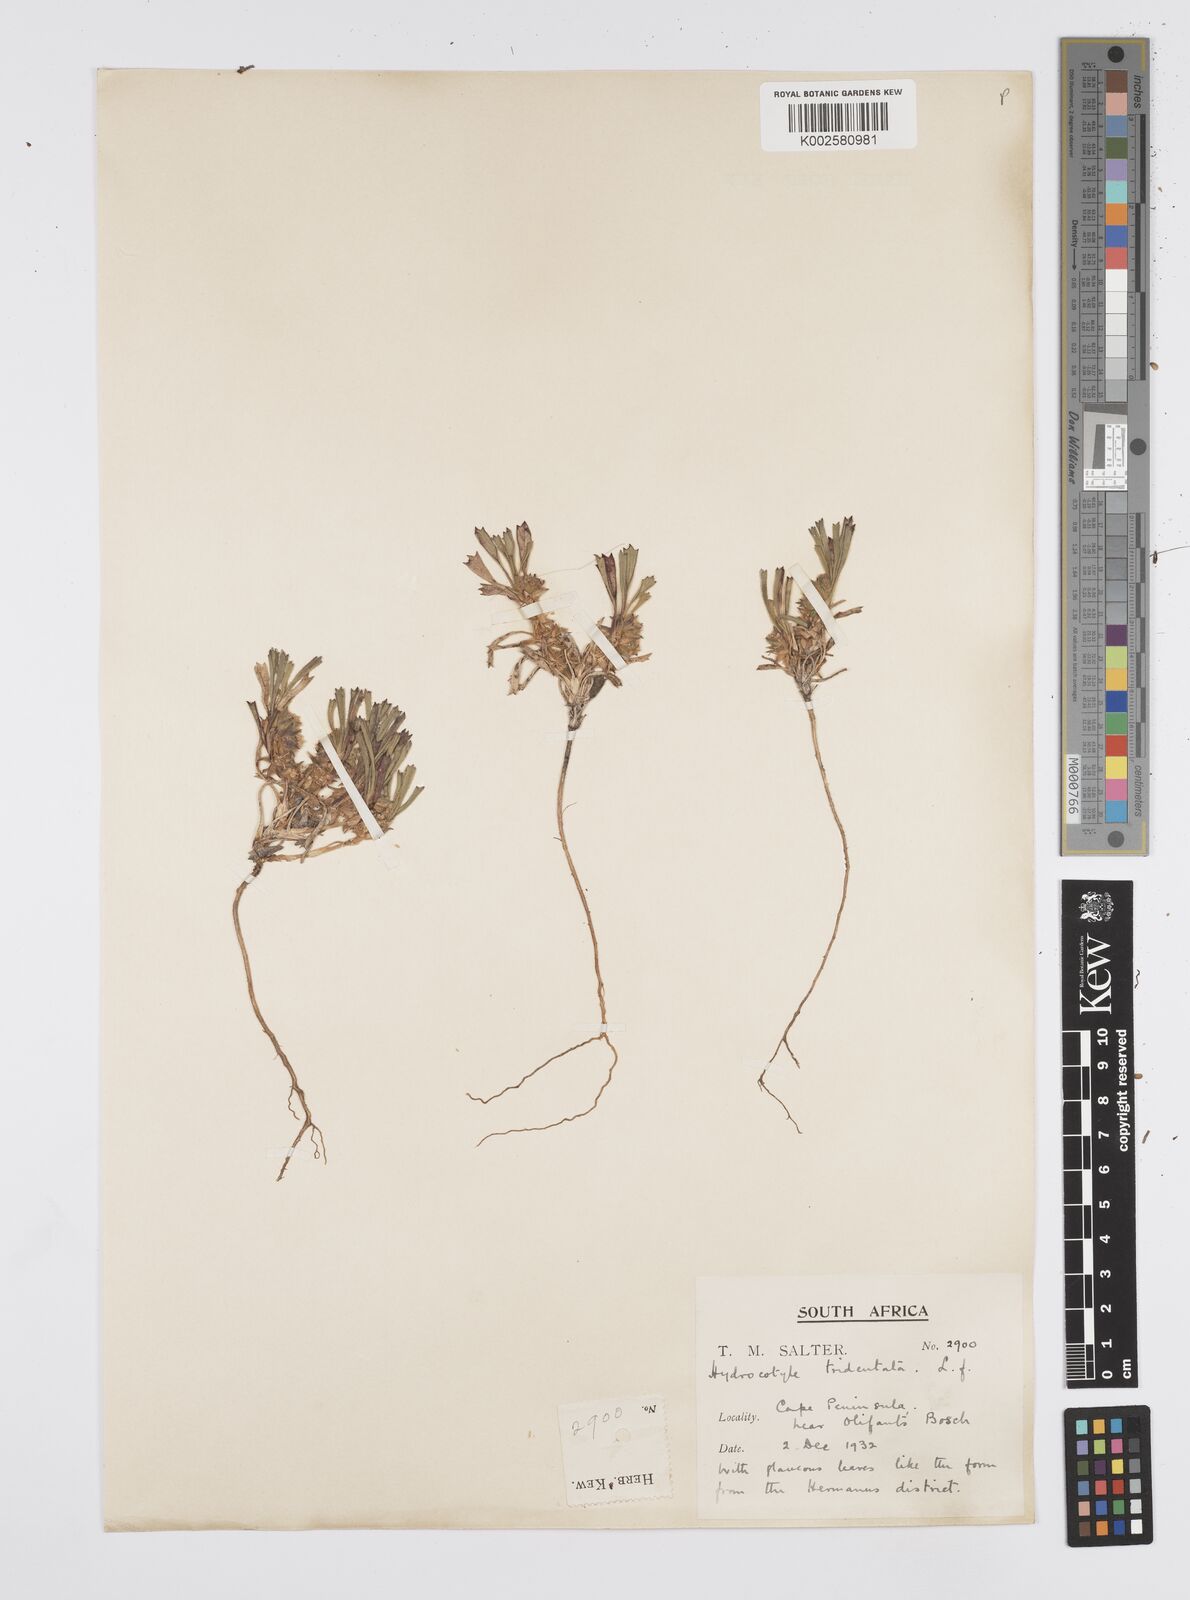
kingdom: Plantae
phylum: Tracheophyta
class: Magnoliopsida
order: Apiales
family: Apiaceae
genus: Centella
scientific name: Centella tridentata
